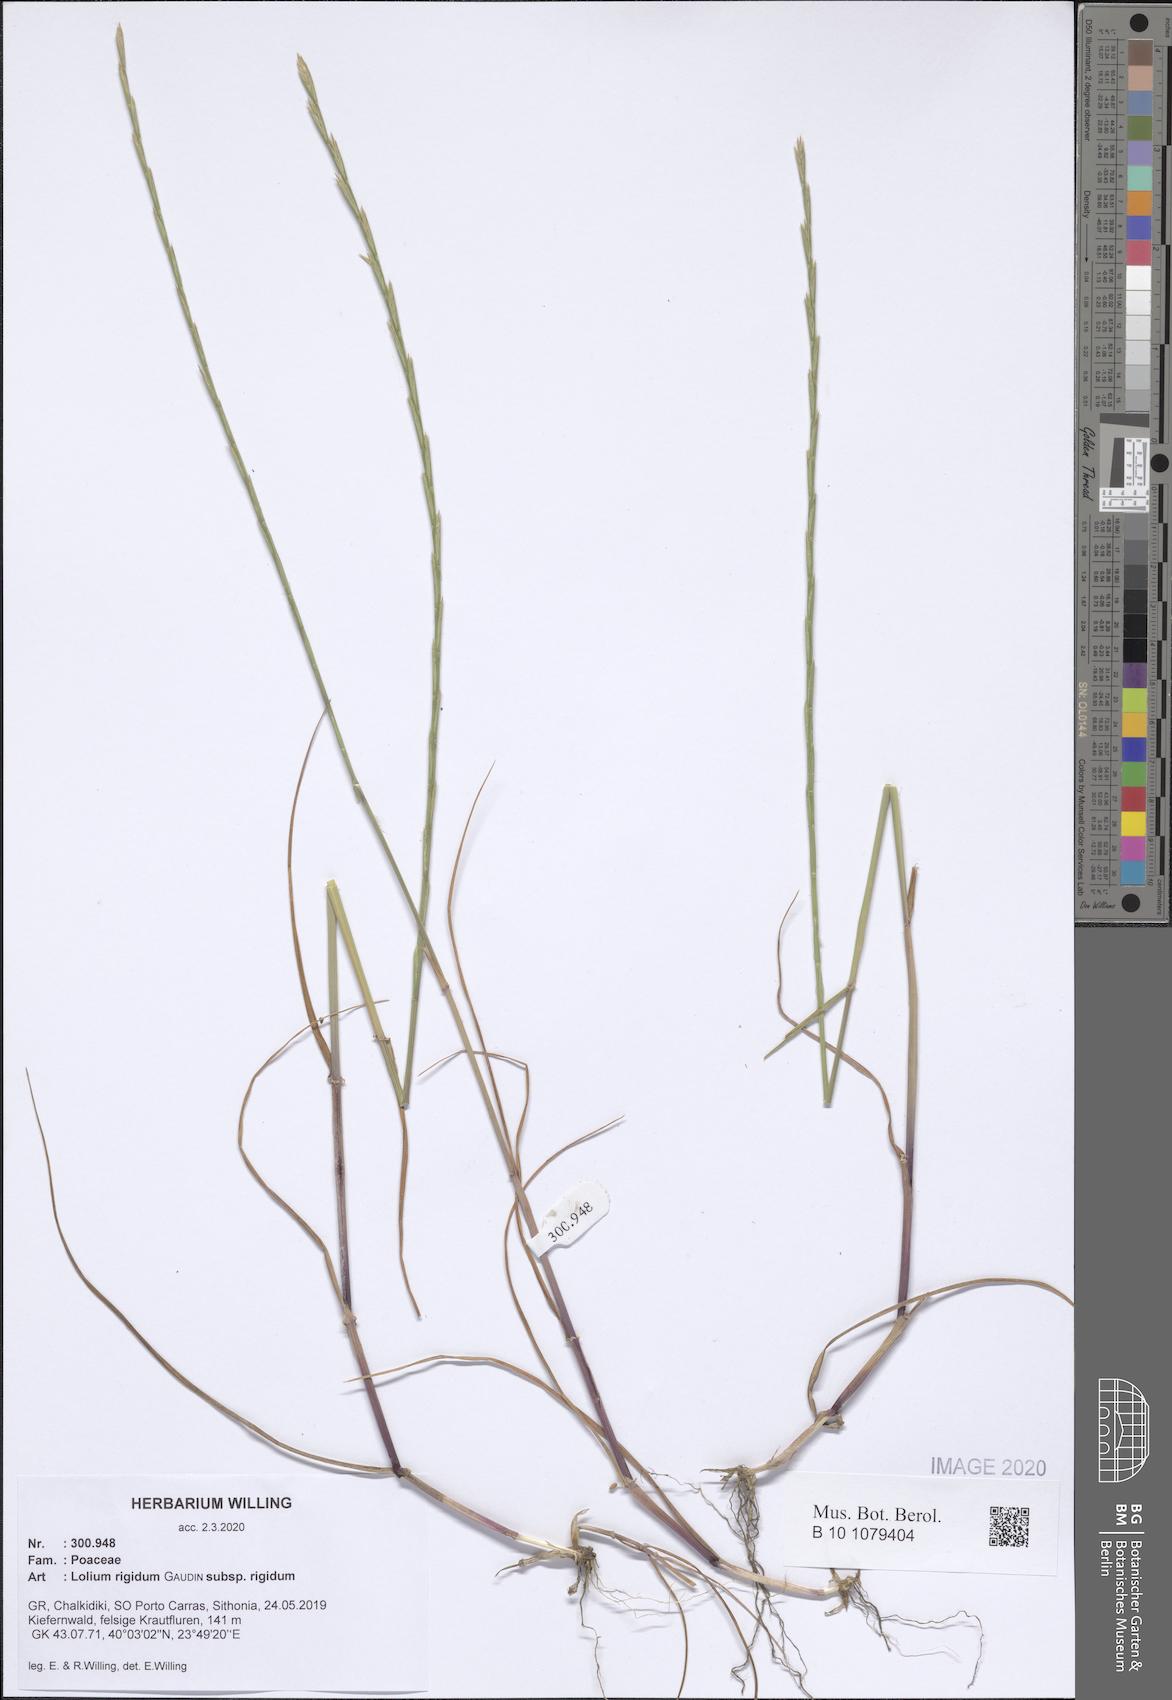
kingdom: Plantae
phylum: Tracheophyta
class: Liliopsida
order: Poales
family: Poaceae
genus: Lolium
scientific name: Lolium rigidum
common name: Wimmera ryegrass
